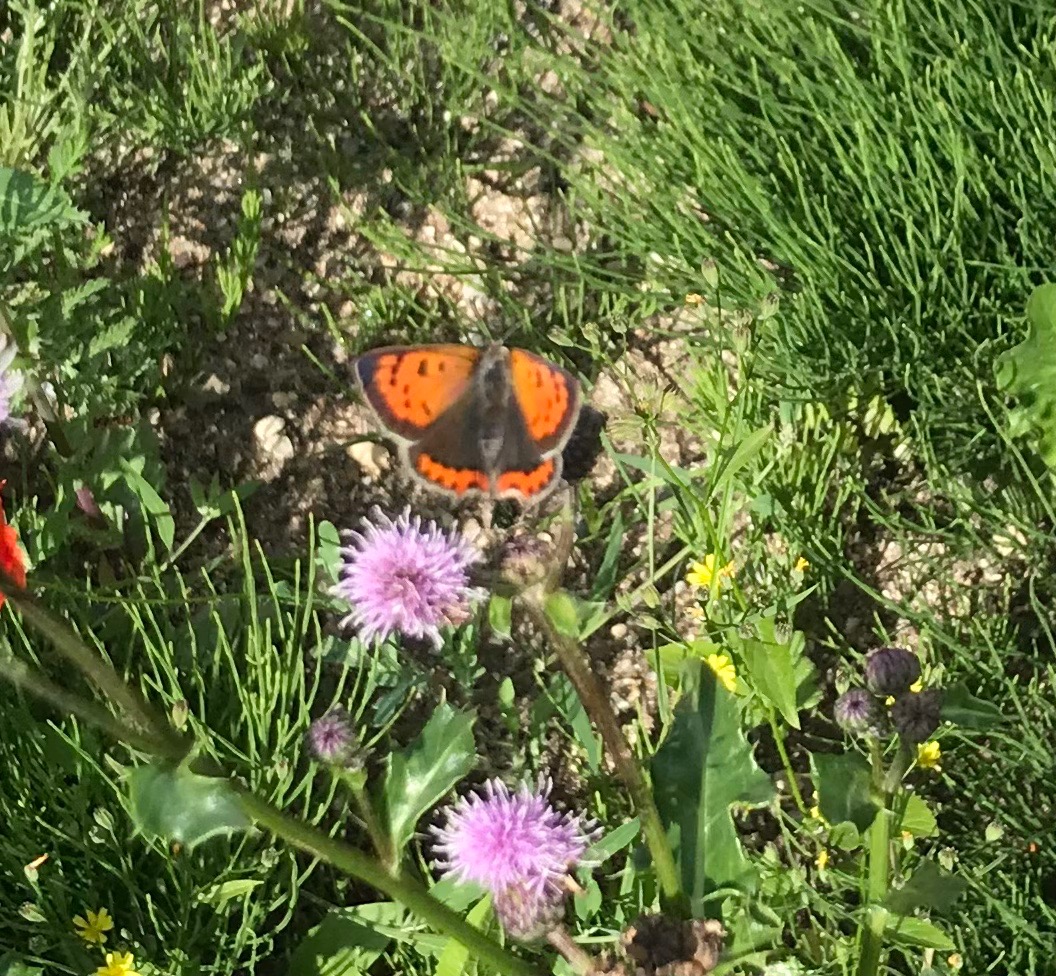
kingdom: Animalia
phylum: Arthropoda
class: Insecta
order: Lepidoptera
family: Lycaenidae
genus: Lycaena
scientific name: Lycaena phlaeas
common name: Lille ildfugl
